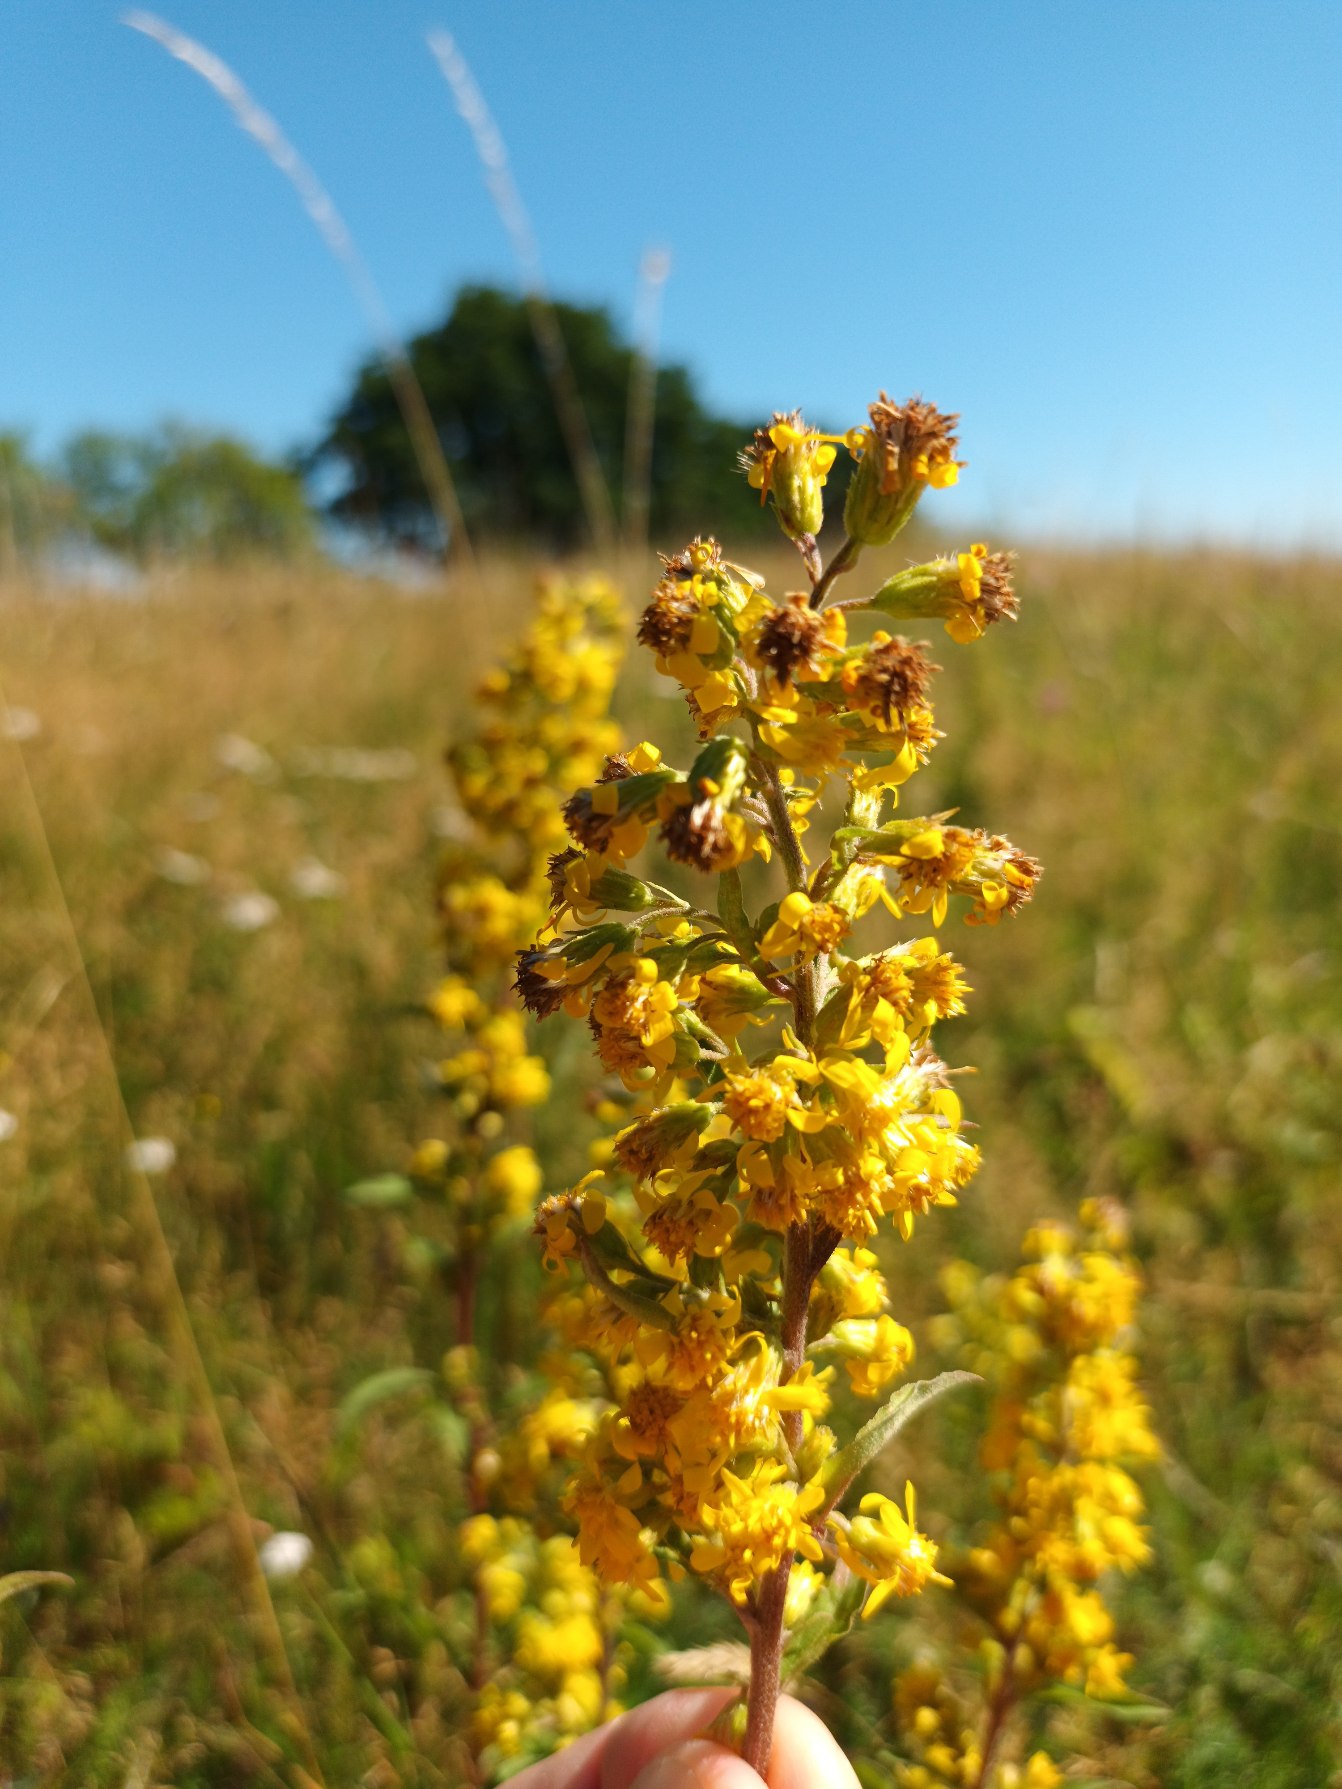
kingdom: Plantae
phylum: Tracheophyta
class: Magnoliopsida
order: Asterales
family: Asteraceae
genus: Solidago
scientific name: Solidago virgaurea
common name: Almindelig gyldenris
